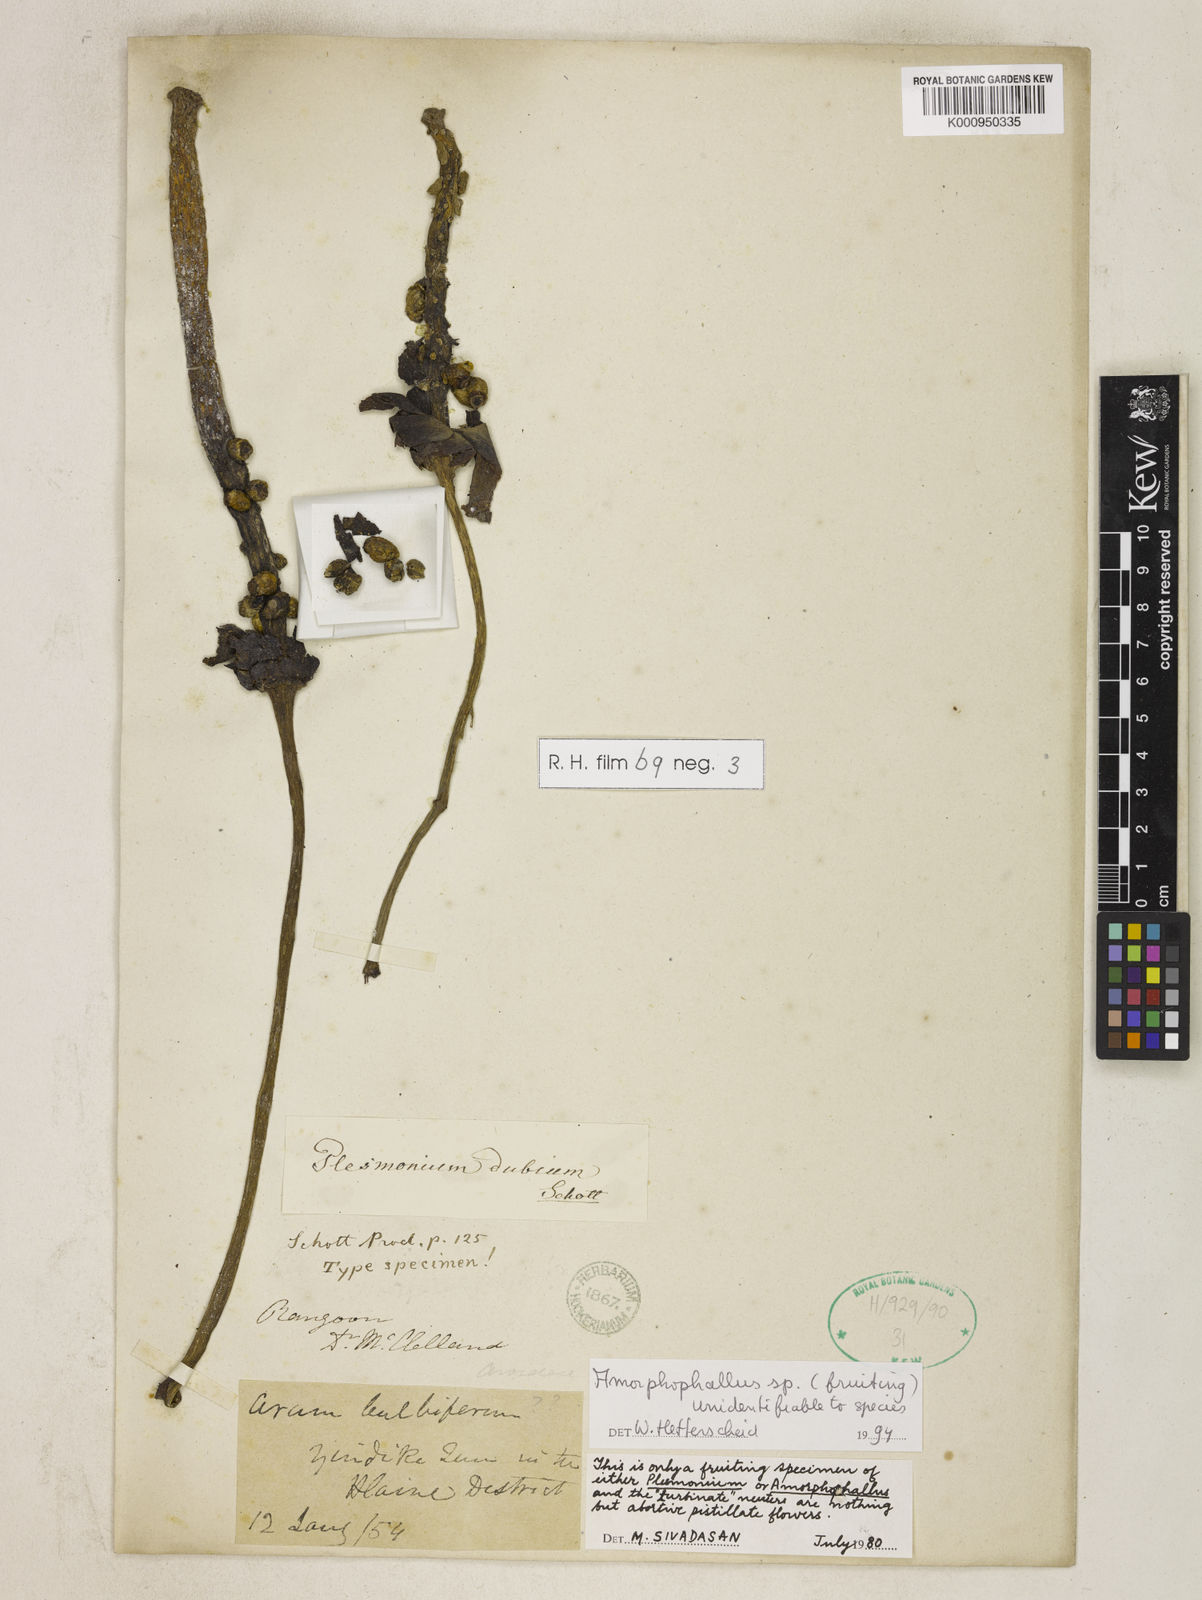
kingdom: Plantae
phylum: Tracheophyta
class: Liliopsida
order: Alismatales
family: Araceae
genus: Amorphophallus
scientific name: Amorphophallus
